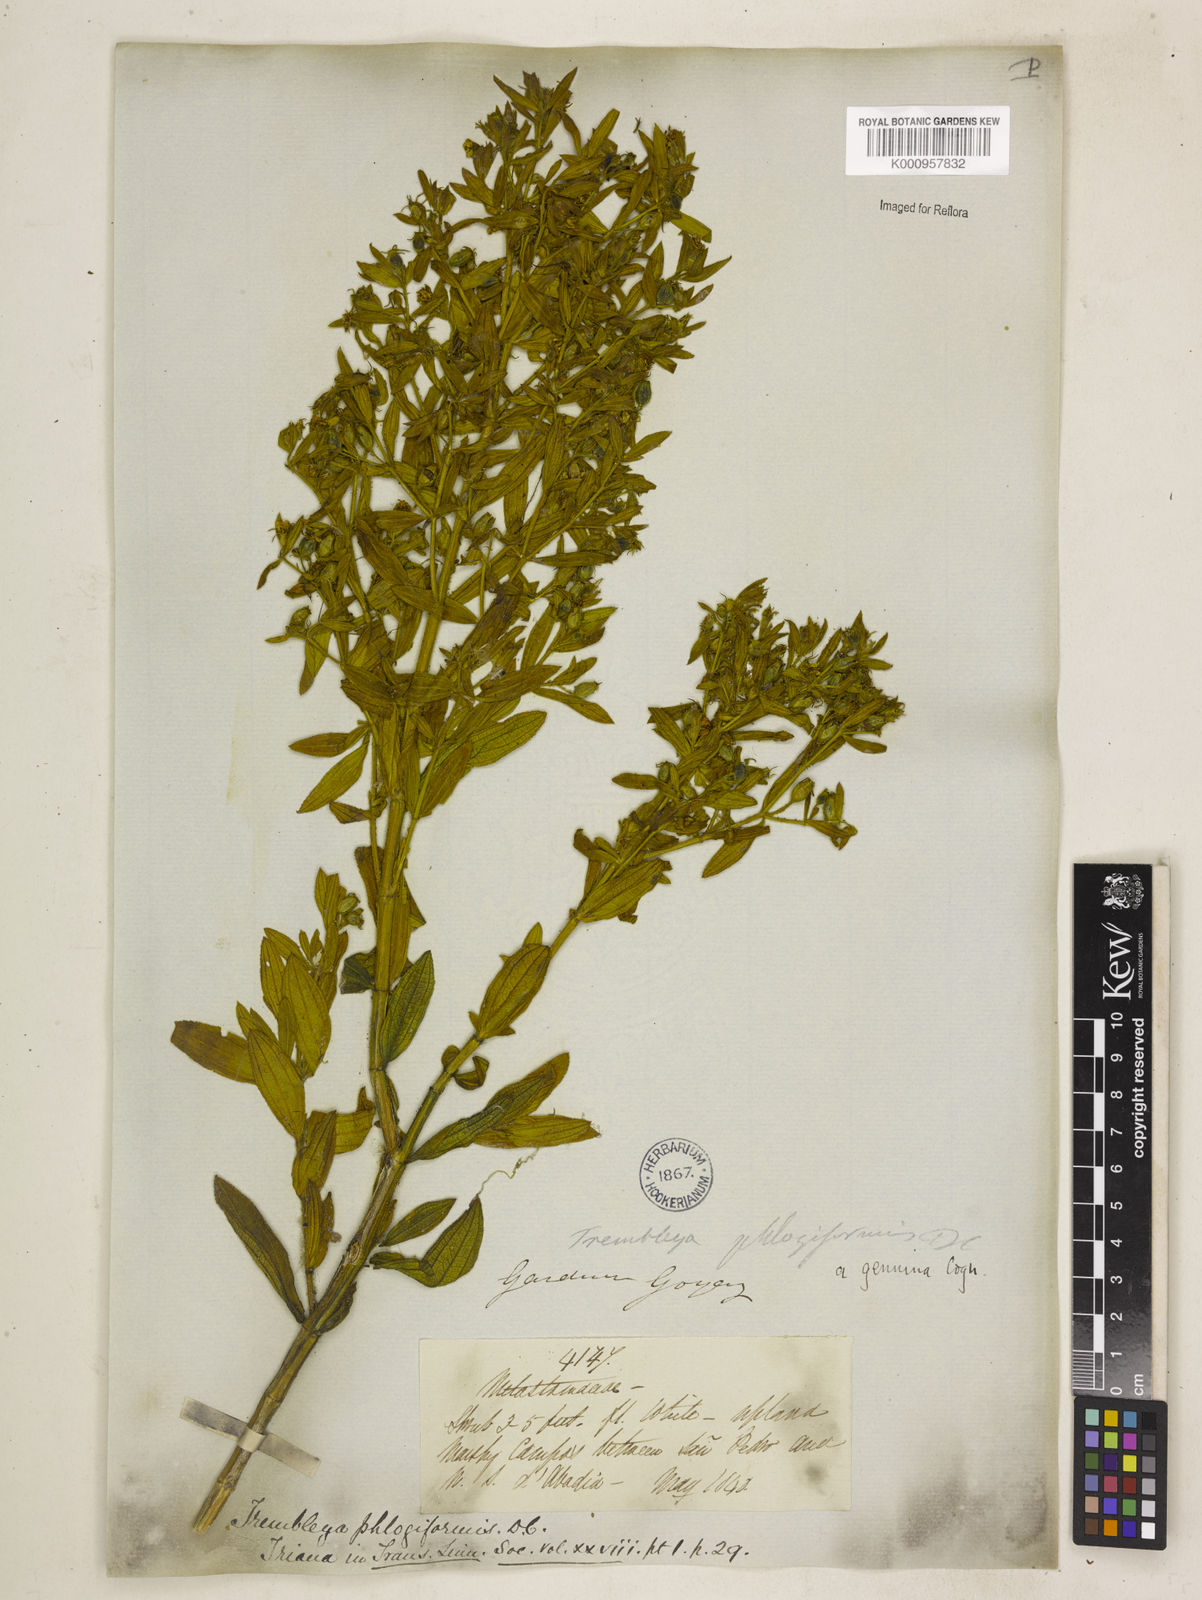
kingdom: Plantae
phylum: Tracheophyta
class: Magnoliopsida
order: Myrtales
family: Melastomataceae
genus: Microlicia
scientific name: Microlicia phlogiformis
